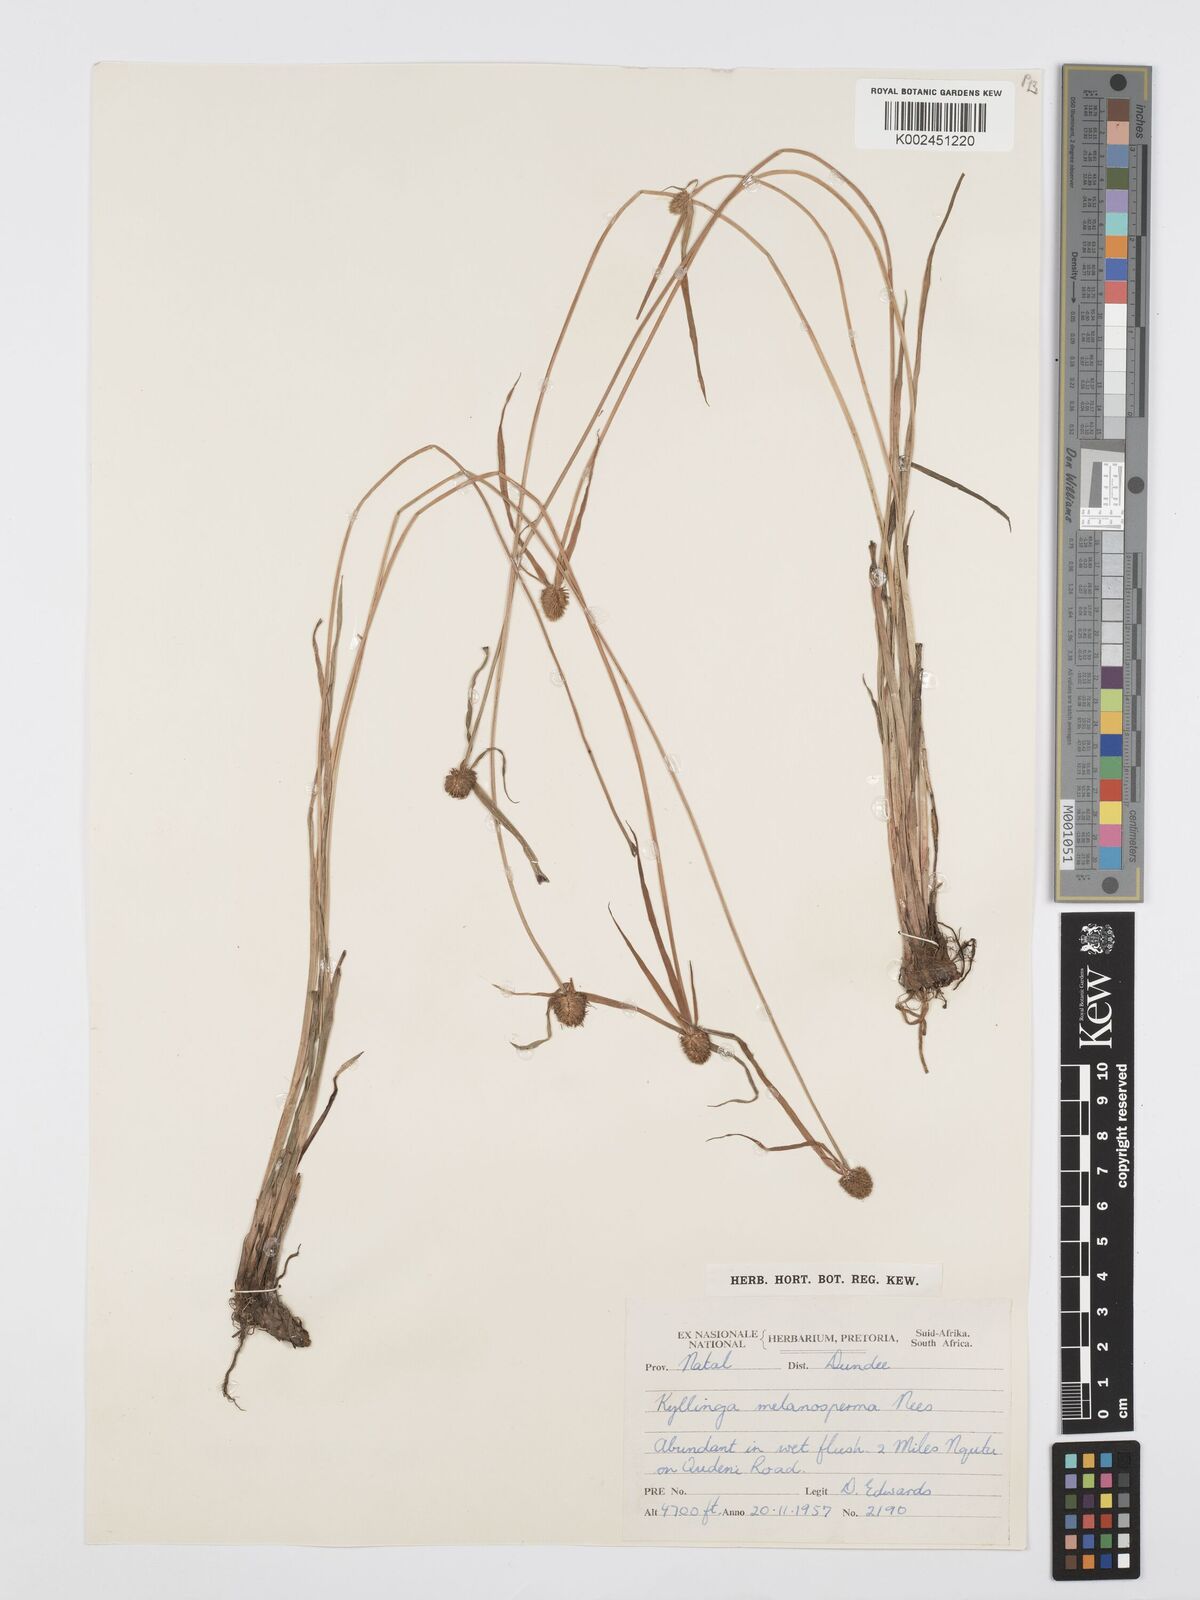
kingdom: Plantae
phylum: Tracheophyta
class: Liliopsida
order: Poales
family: Cyperaceae
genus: Cyperus
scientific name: Cyperus melanospermus
